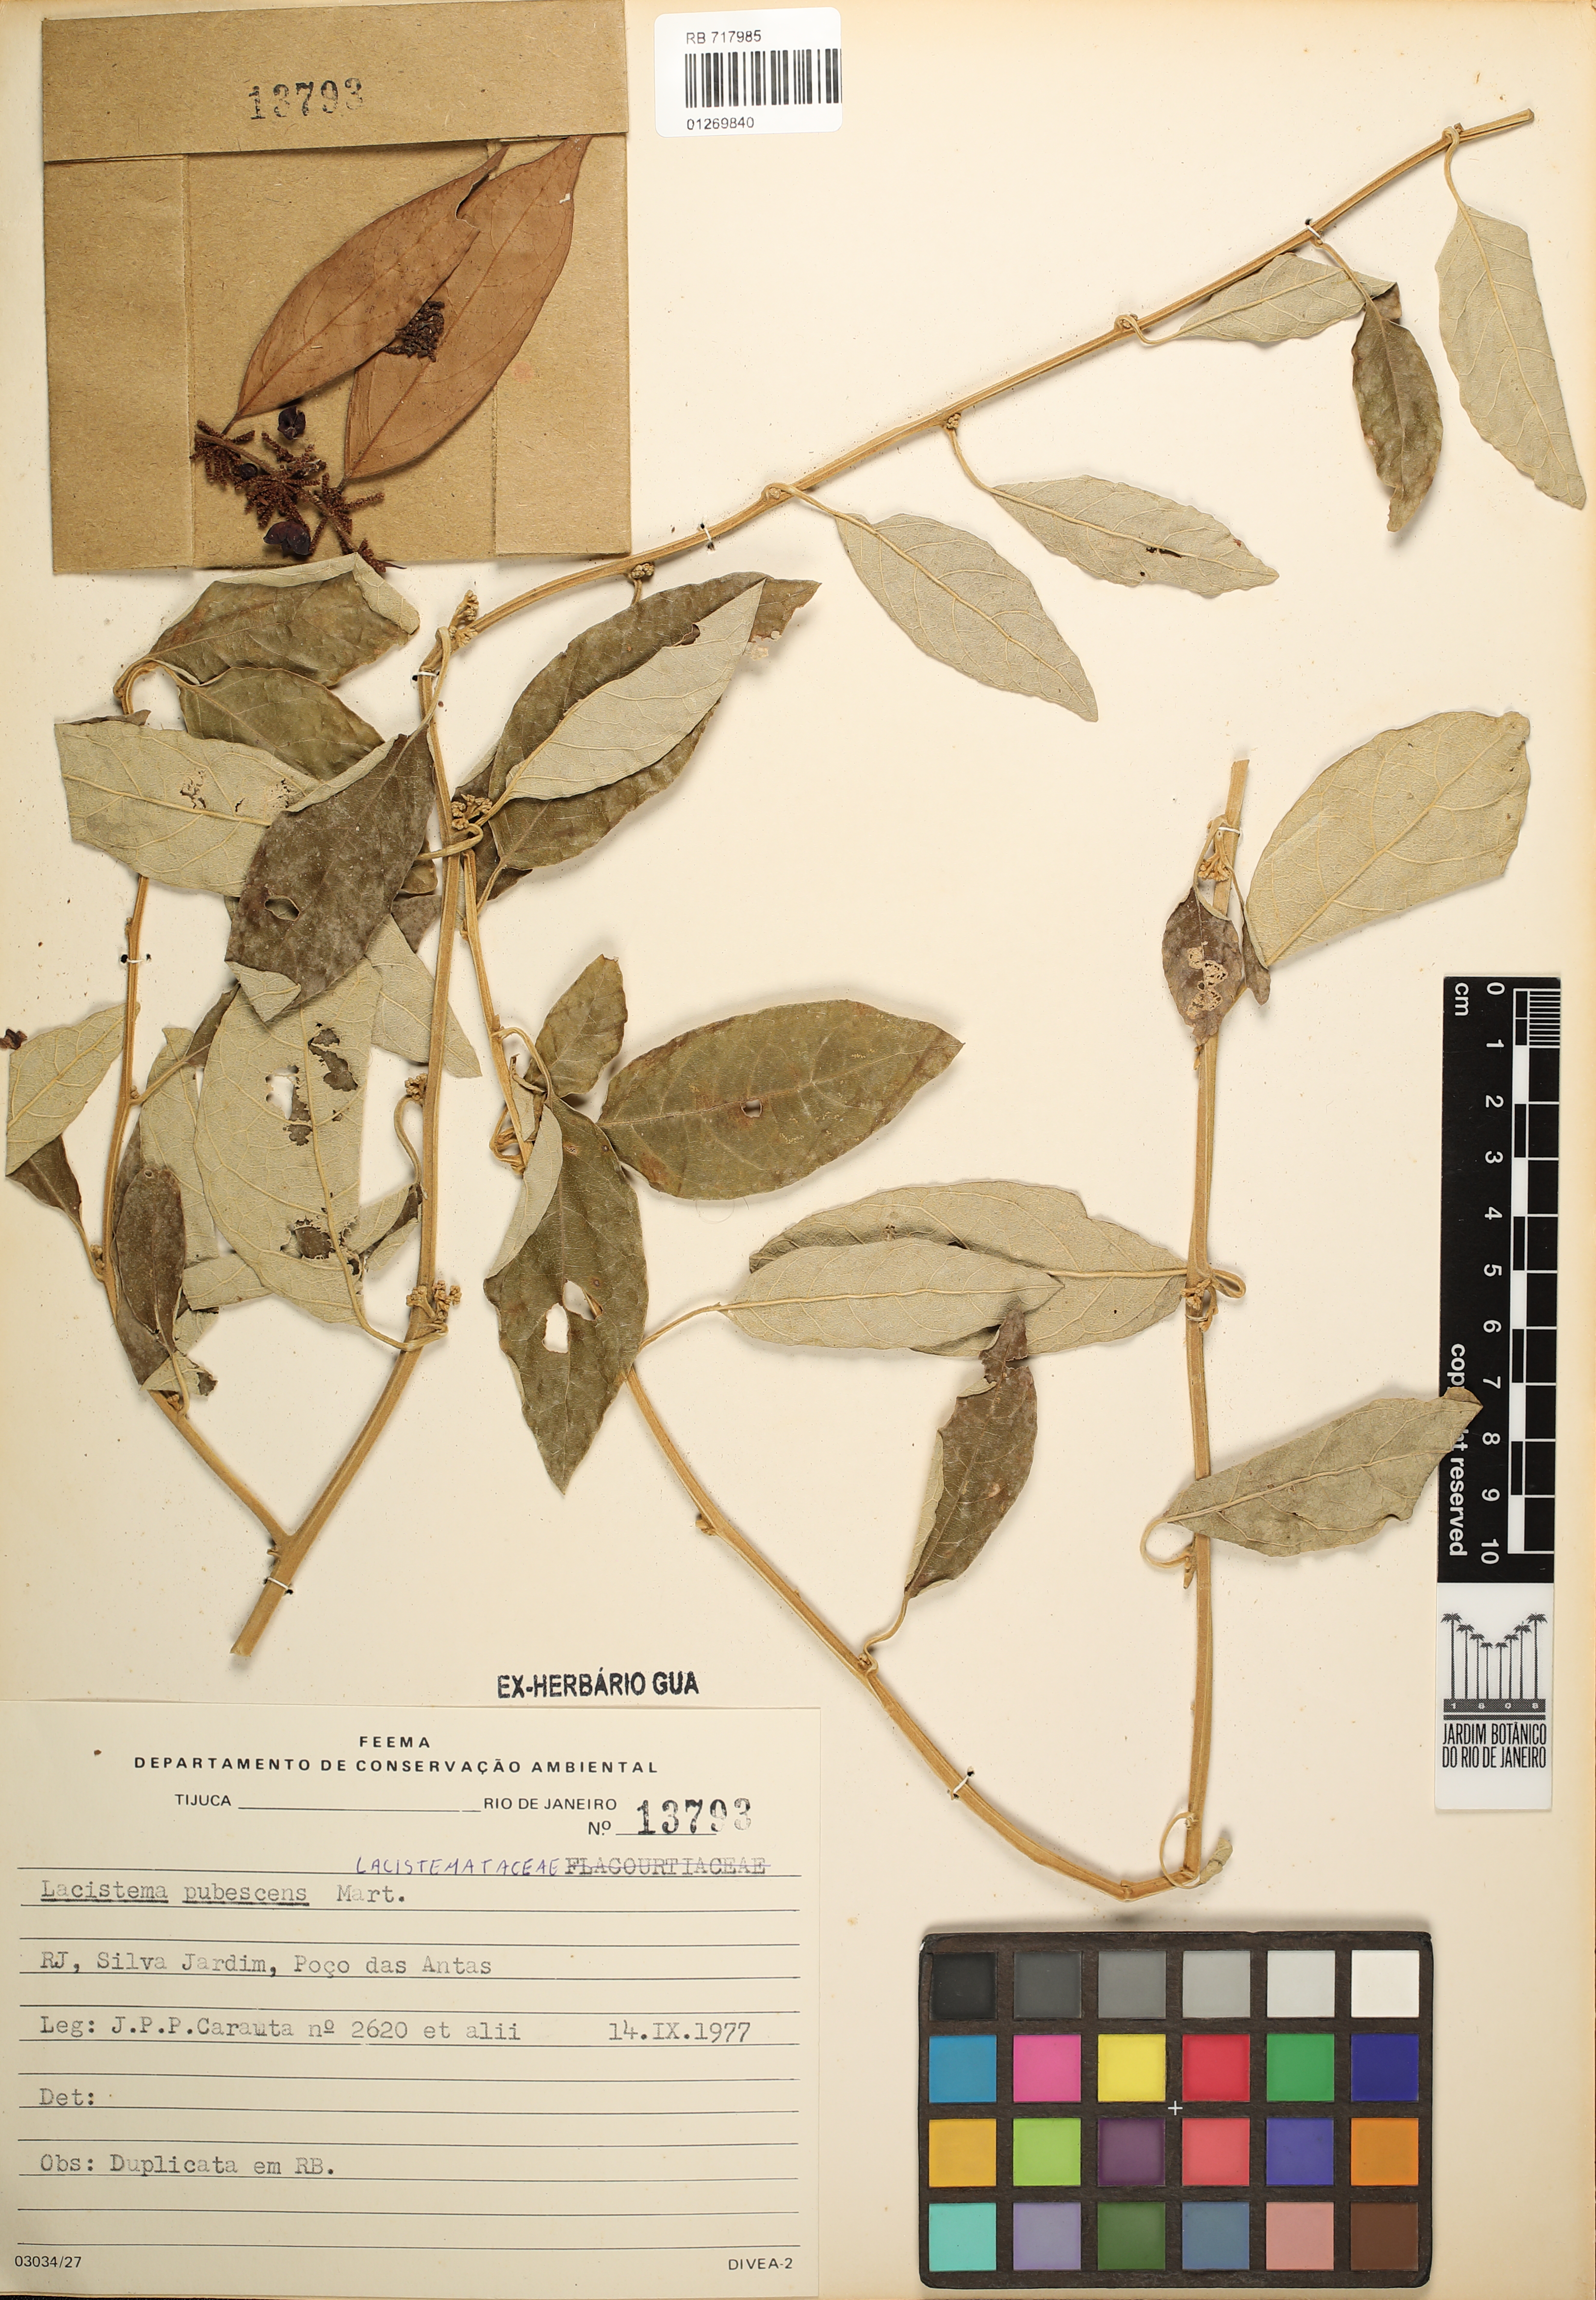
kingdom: Plantae
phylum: Tracheophyta
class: Magnoliopsida
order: Malpighiales
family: Lacistemataceae
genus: Lacistema
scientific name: Lacistema pubescens
